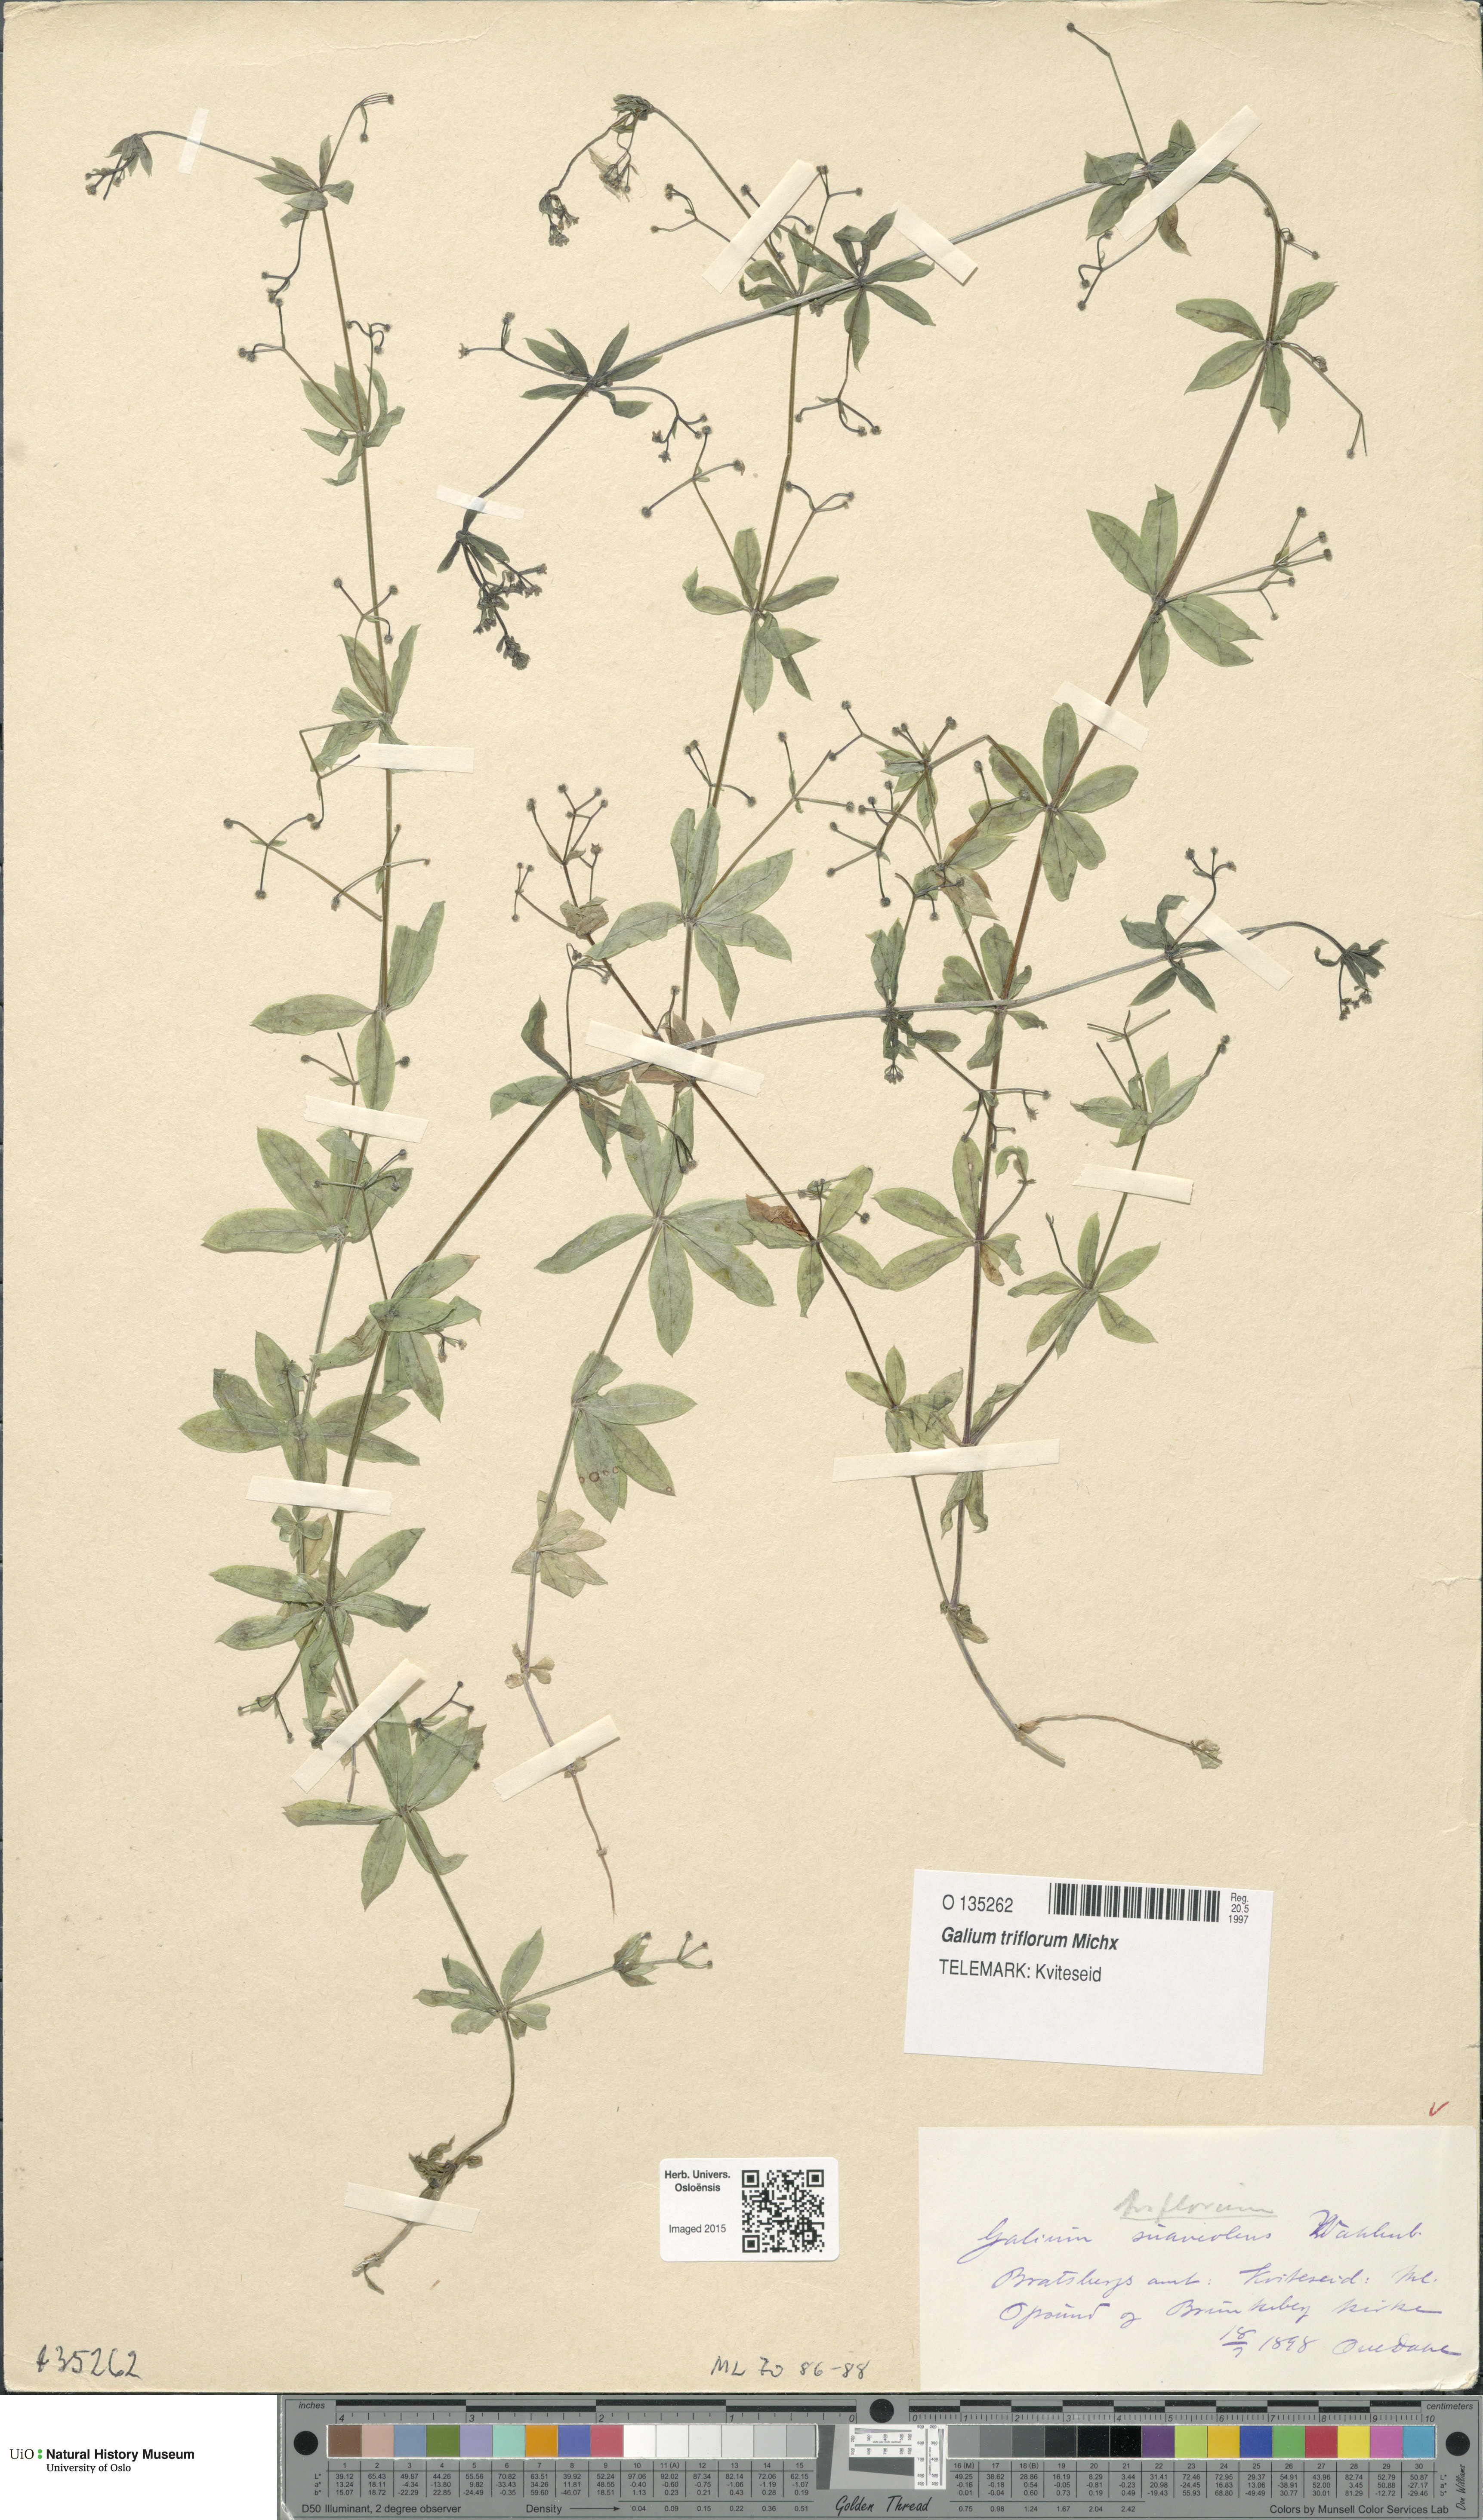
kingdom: Plantae
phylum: Tracheophyta
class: Magnoliopsida
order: Gentianales
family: Rubiaceae
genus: Galium
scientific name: Galium triflorum
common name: Fragrant bedstraw
